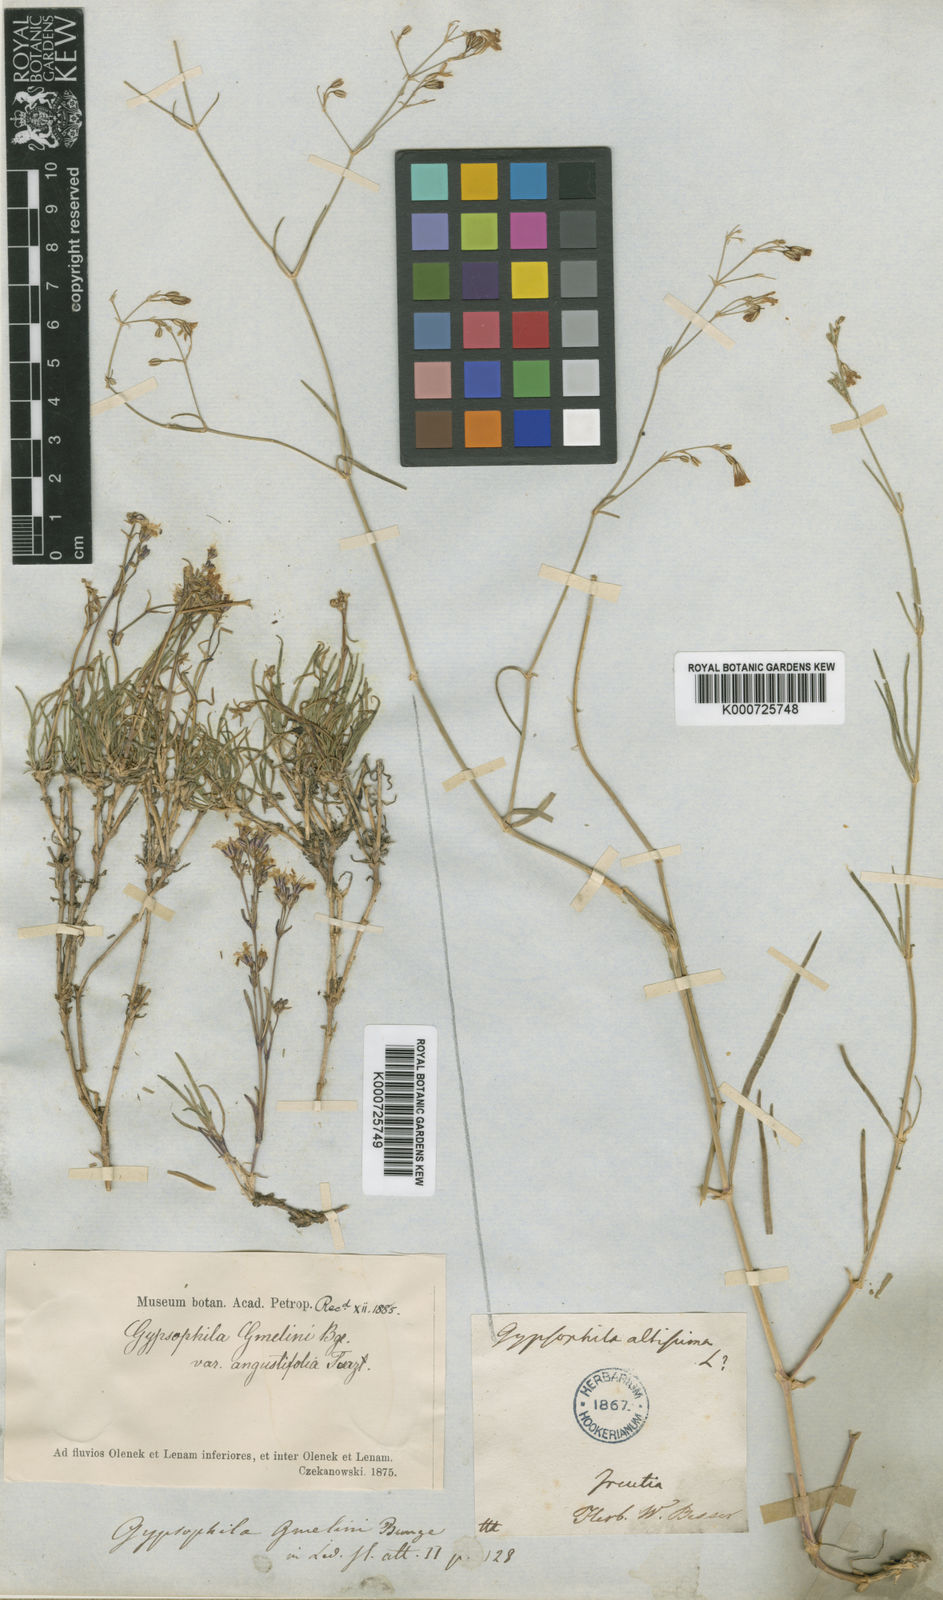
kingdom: Plantae
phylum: Tracheophyta
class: Magnoliopsida
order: Caryophyllales
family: Caryophyllaceae
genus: Gypsophila
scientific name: Gypsophila patrinii
